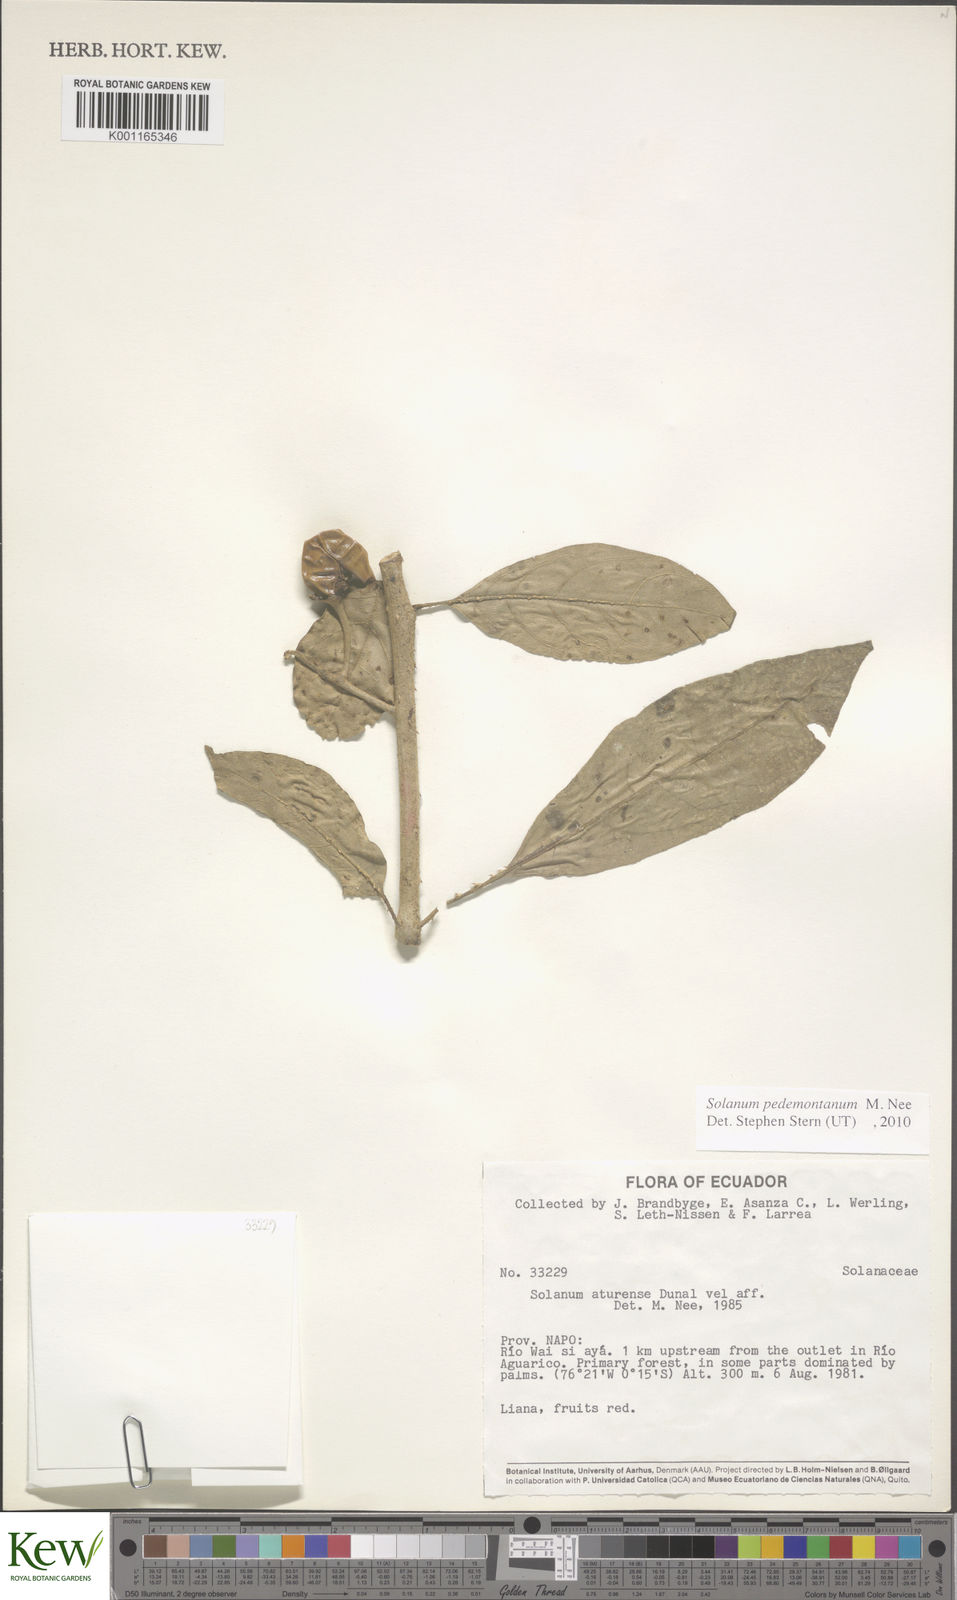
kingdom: Plantae
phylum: Tracheophyta
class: Magnoliopsida
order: Solanales
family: Solanaceae
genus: Solanum
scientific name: Solanum pedemontanum
